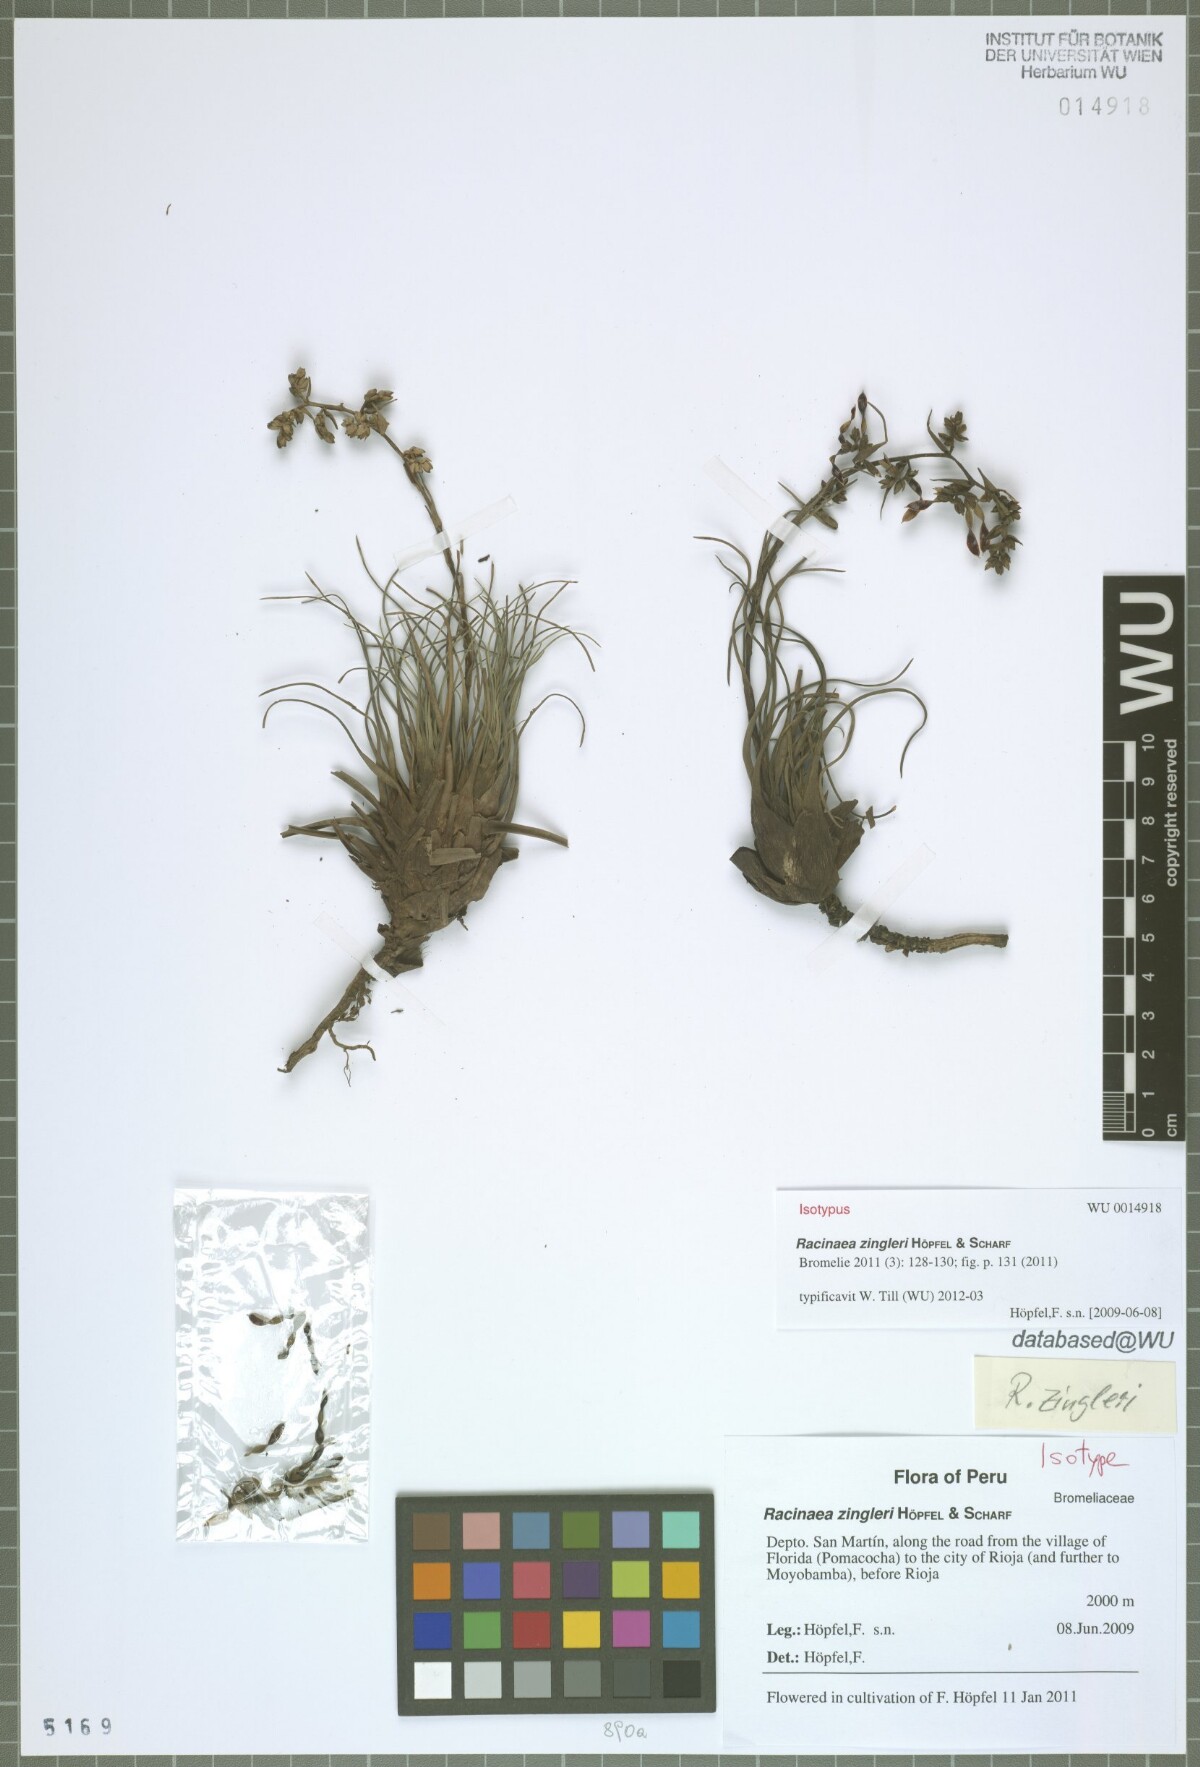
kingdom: Plantae
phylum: Tracheophyta
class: Liliopsida
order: Poales
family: Bromeliaceae
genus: Racinaea
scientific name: Racinaea zingleri
